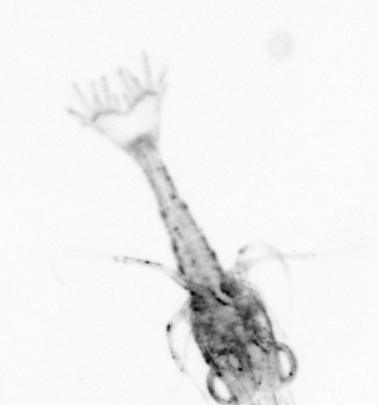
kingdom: Animalia
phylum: Arthropoda
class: Copepoda
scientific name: Copepoda
